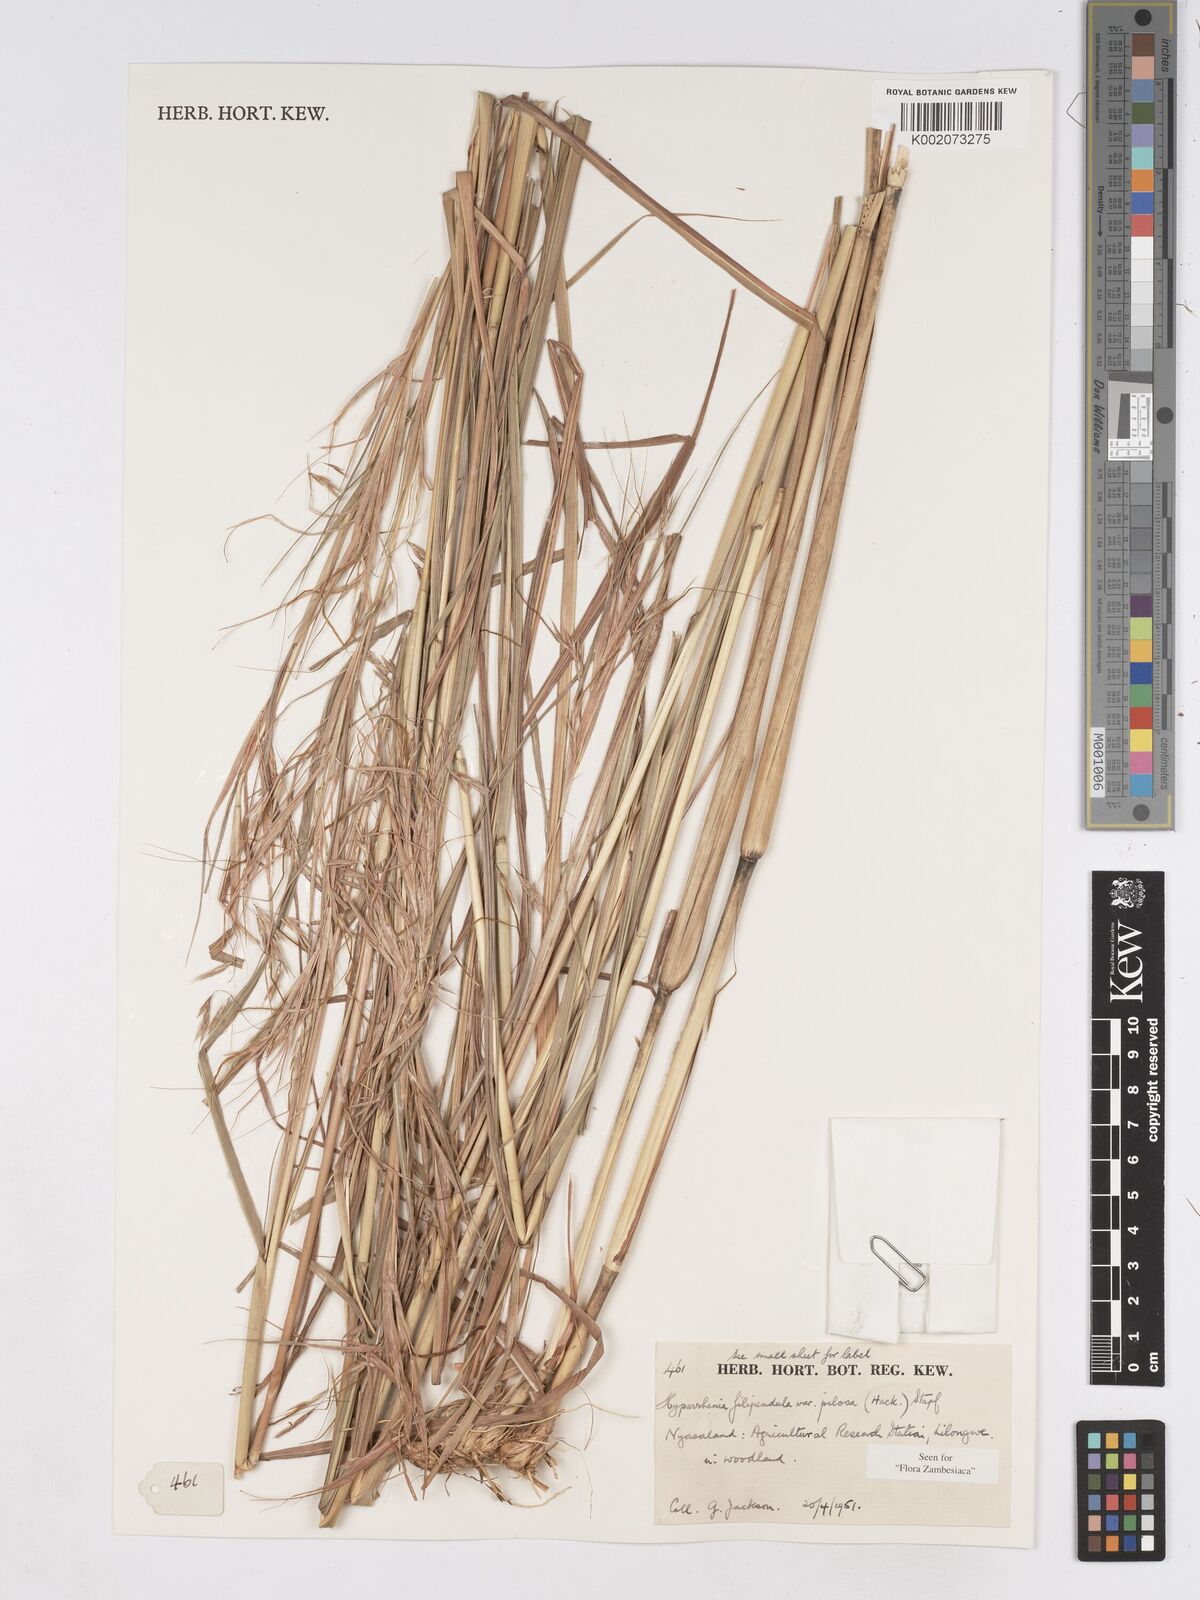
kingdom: Plantae
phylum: Tracheophyta
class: Liliopsida
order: Poales
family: Poaceae
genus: Hyparrhenia
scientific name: Hyparrhenia filipendula
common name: Tambookie grass
